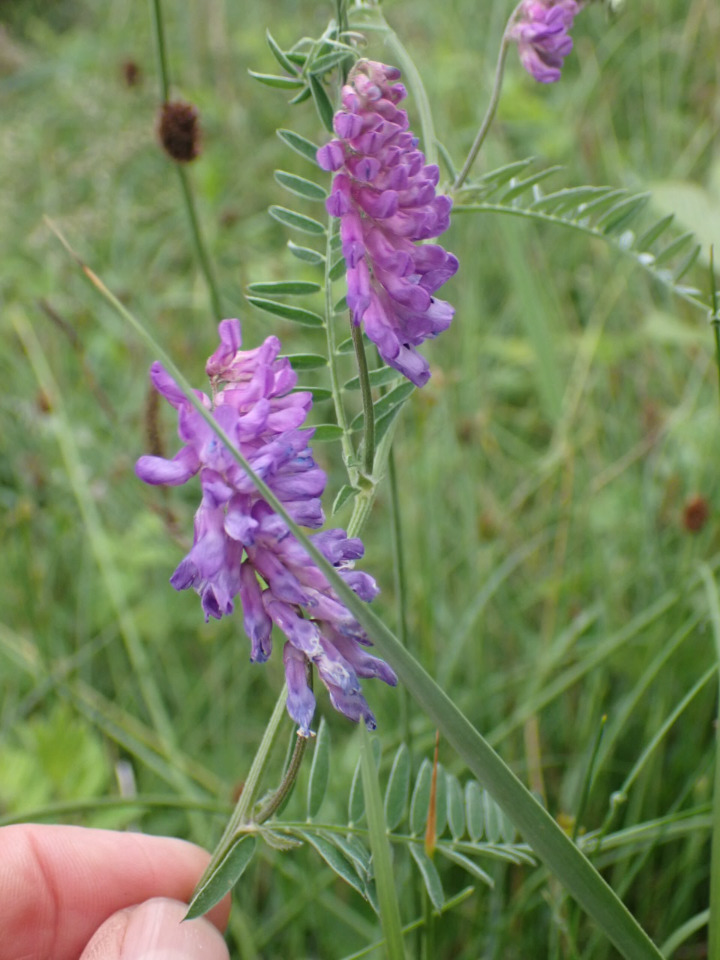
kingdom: Plantae
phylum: Tracheophyta
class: Magnoliopsida
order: Fabales
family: Fabaceae
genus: Vicia
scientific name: Vicia cracca
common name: Muse-vikke
